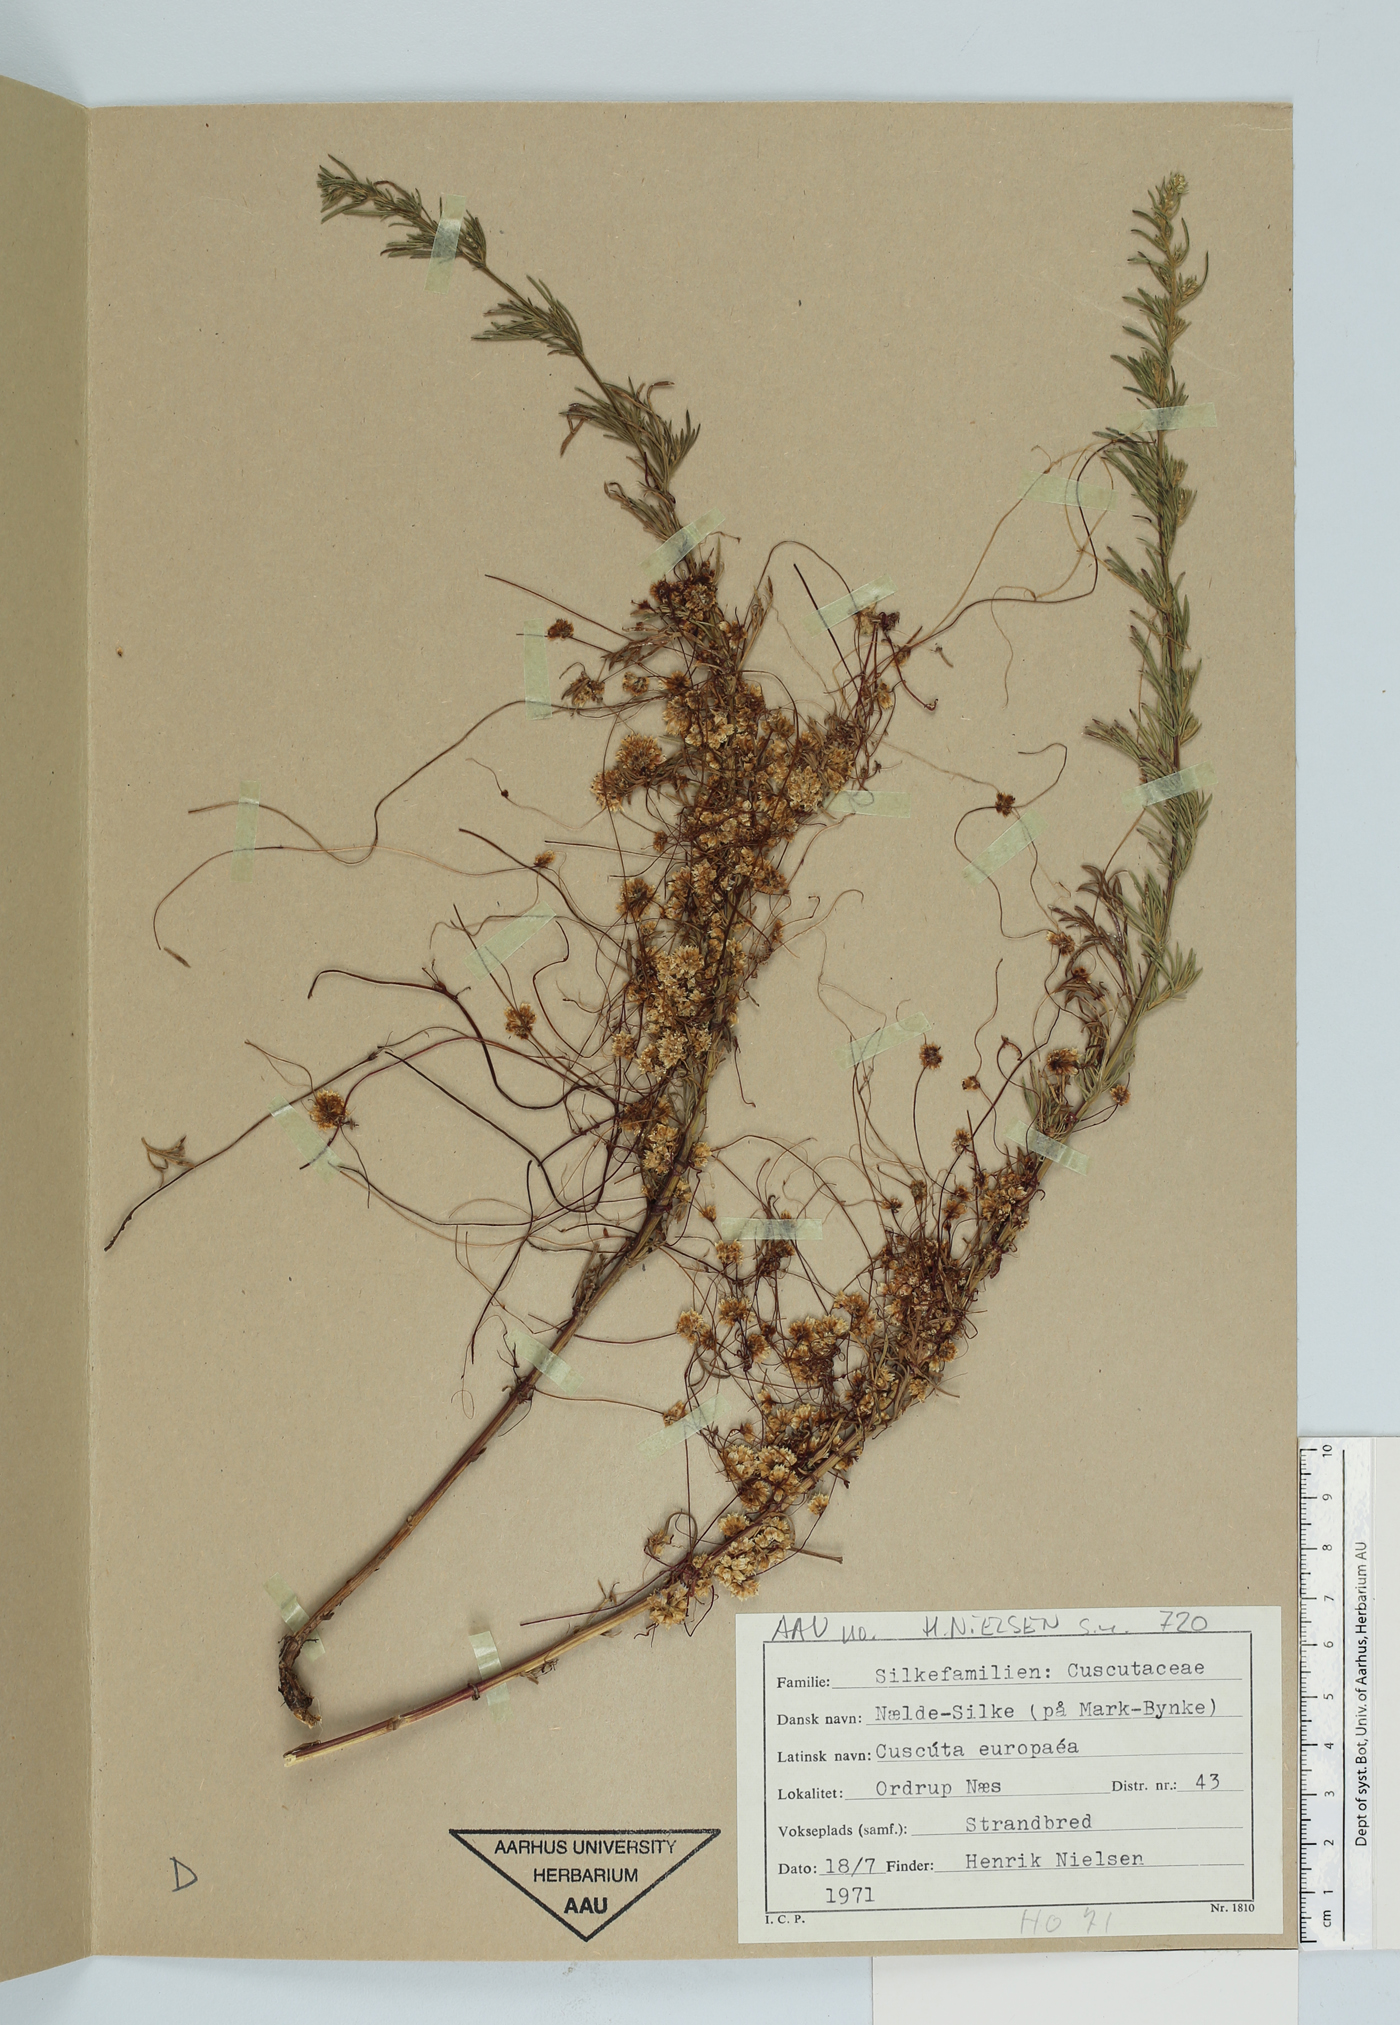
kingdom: Plantae
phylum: Tracheophyta
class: Magnoliopsida
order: Solanales
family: Convolvulaceae
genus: Cuscuta
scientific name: Cuscuta europaea
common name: Greater dodder
